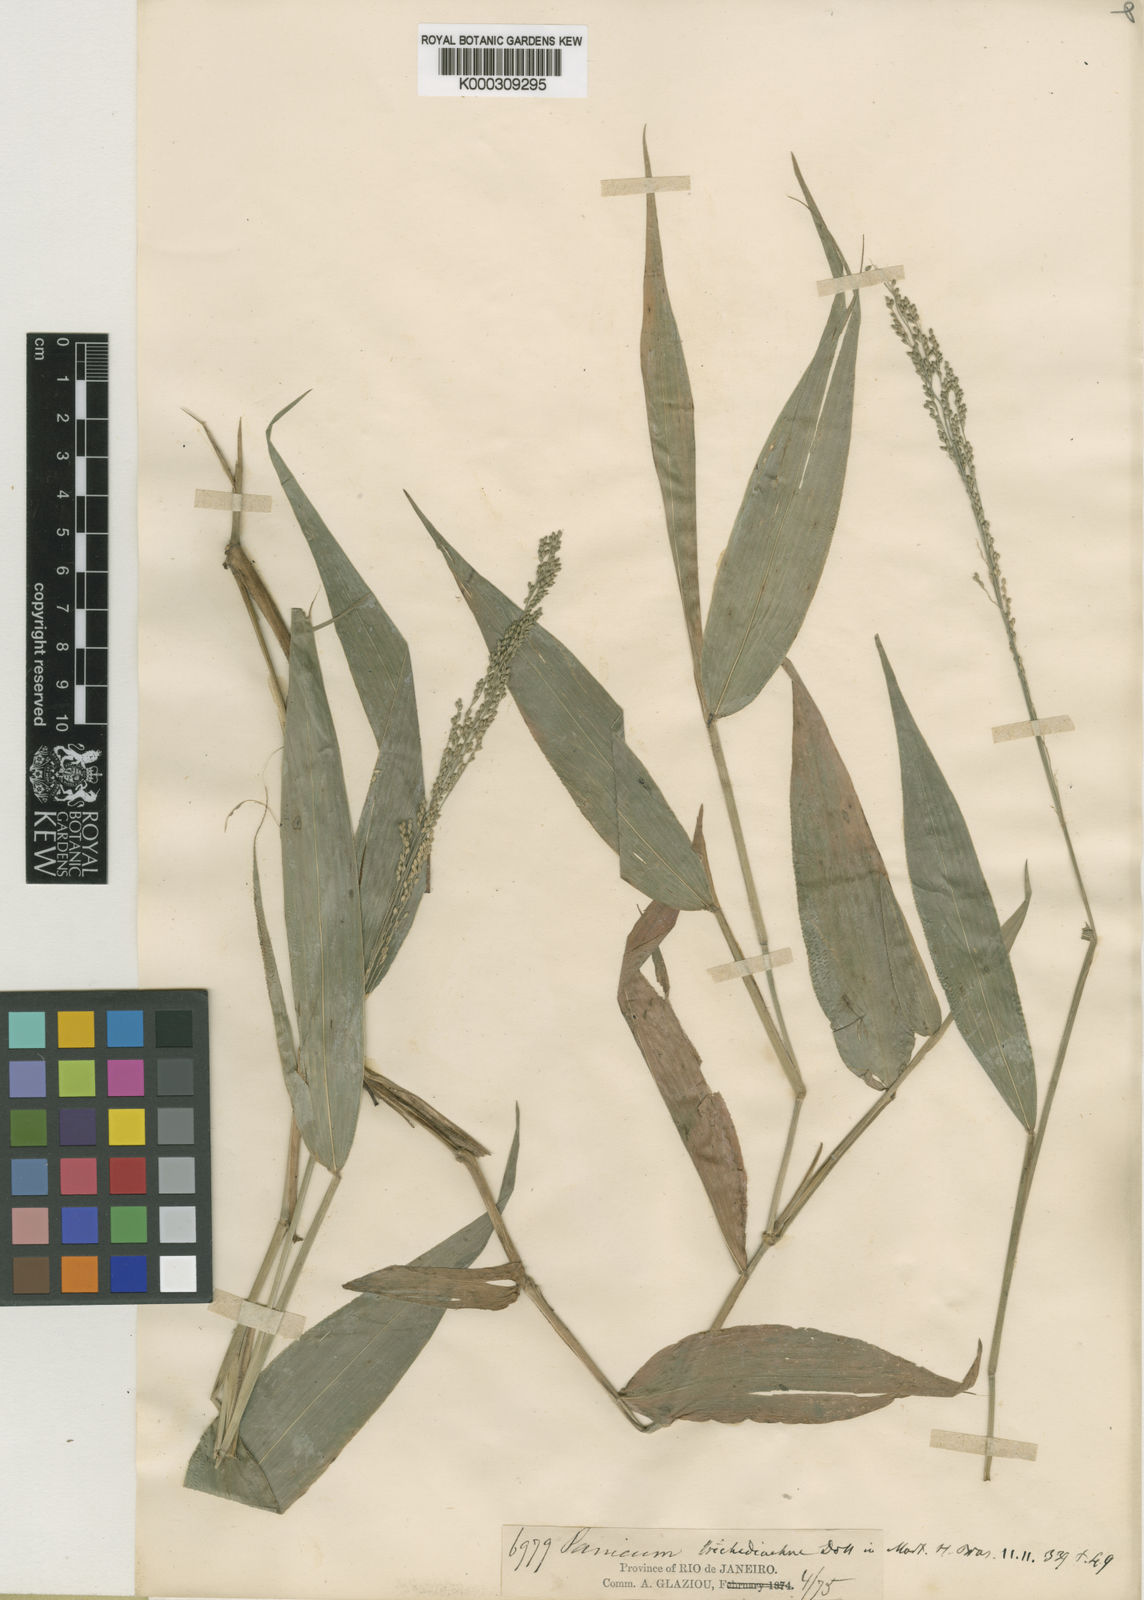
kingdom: Plantae
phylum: Tracheophyta
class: Liliopsida
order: Poales
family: Poaceae
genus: Panicum
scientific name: Panicum
